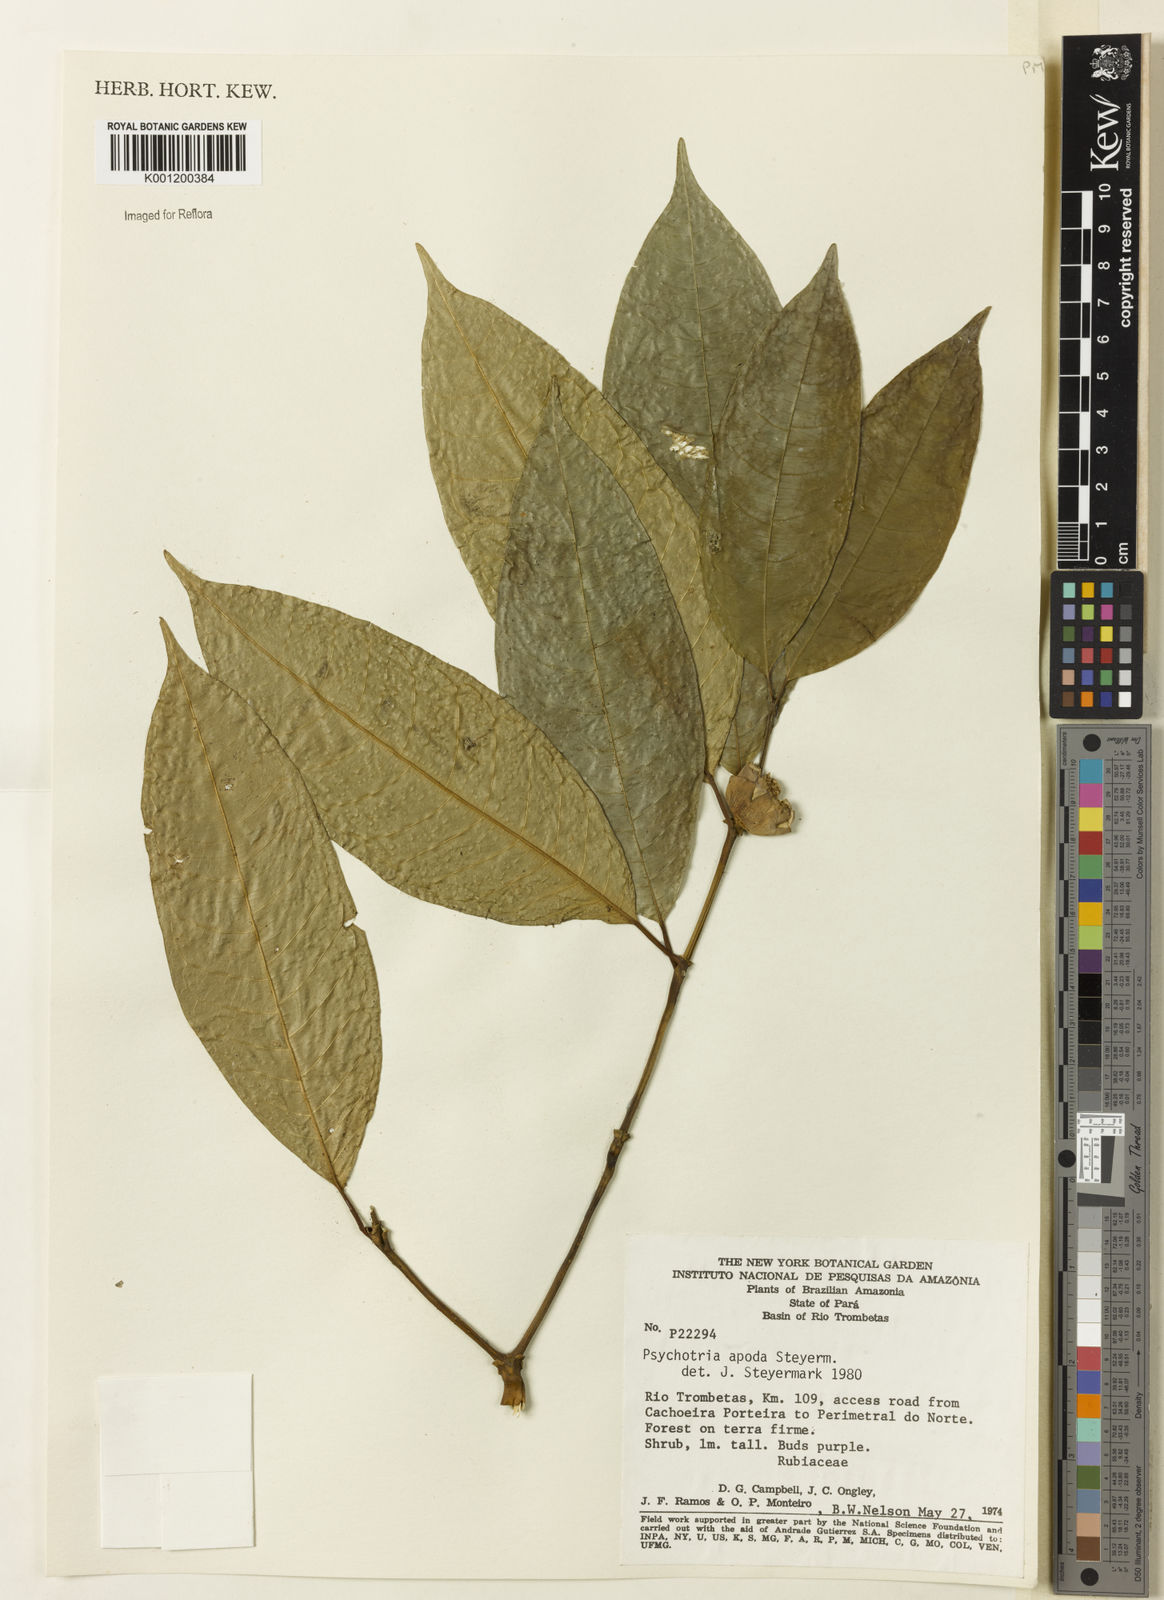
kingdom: Plantae
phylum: Tracheophyta
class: Magnoliopsida
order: Gentianales
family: Rubiaceae
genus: Palicourea
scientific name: Palicourea apoda
